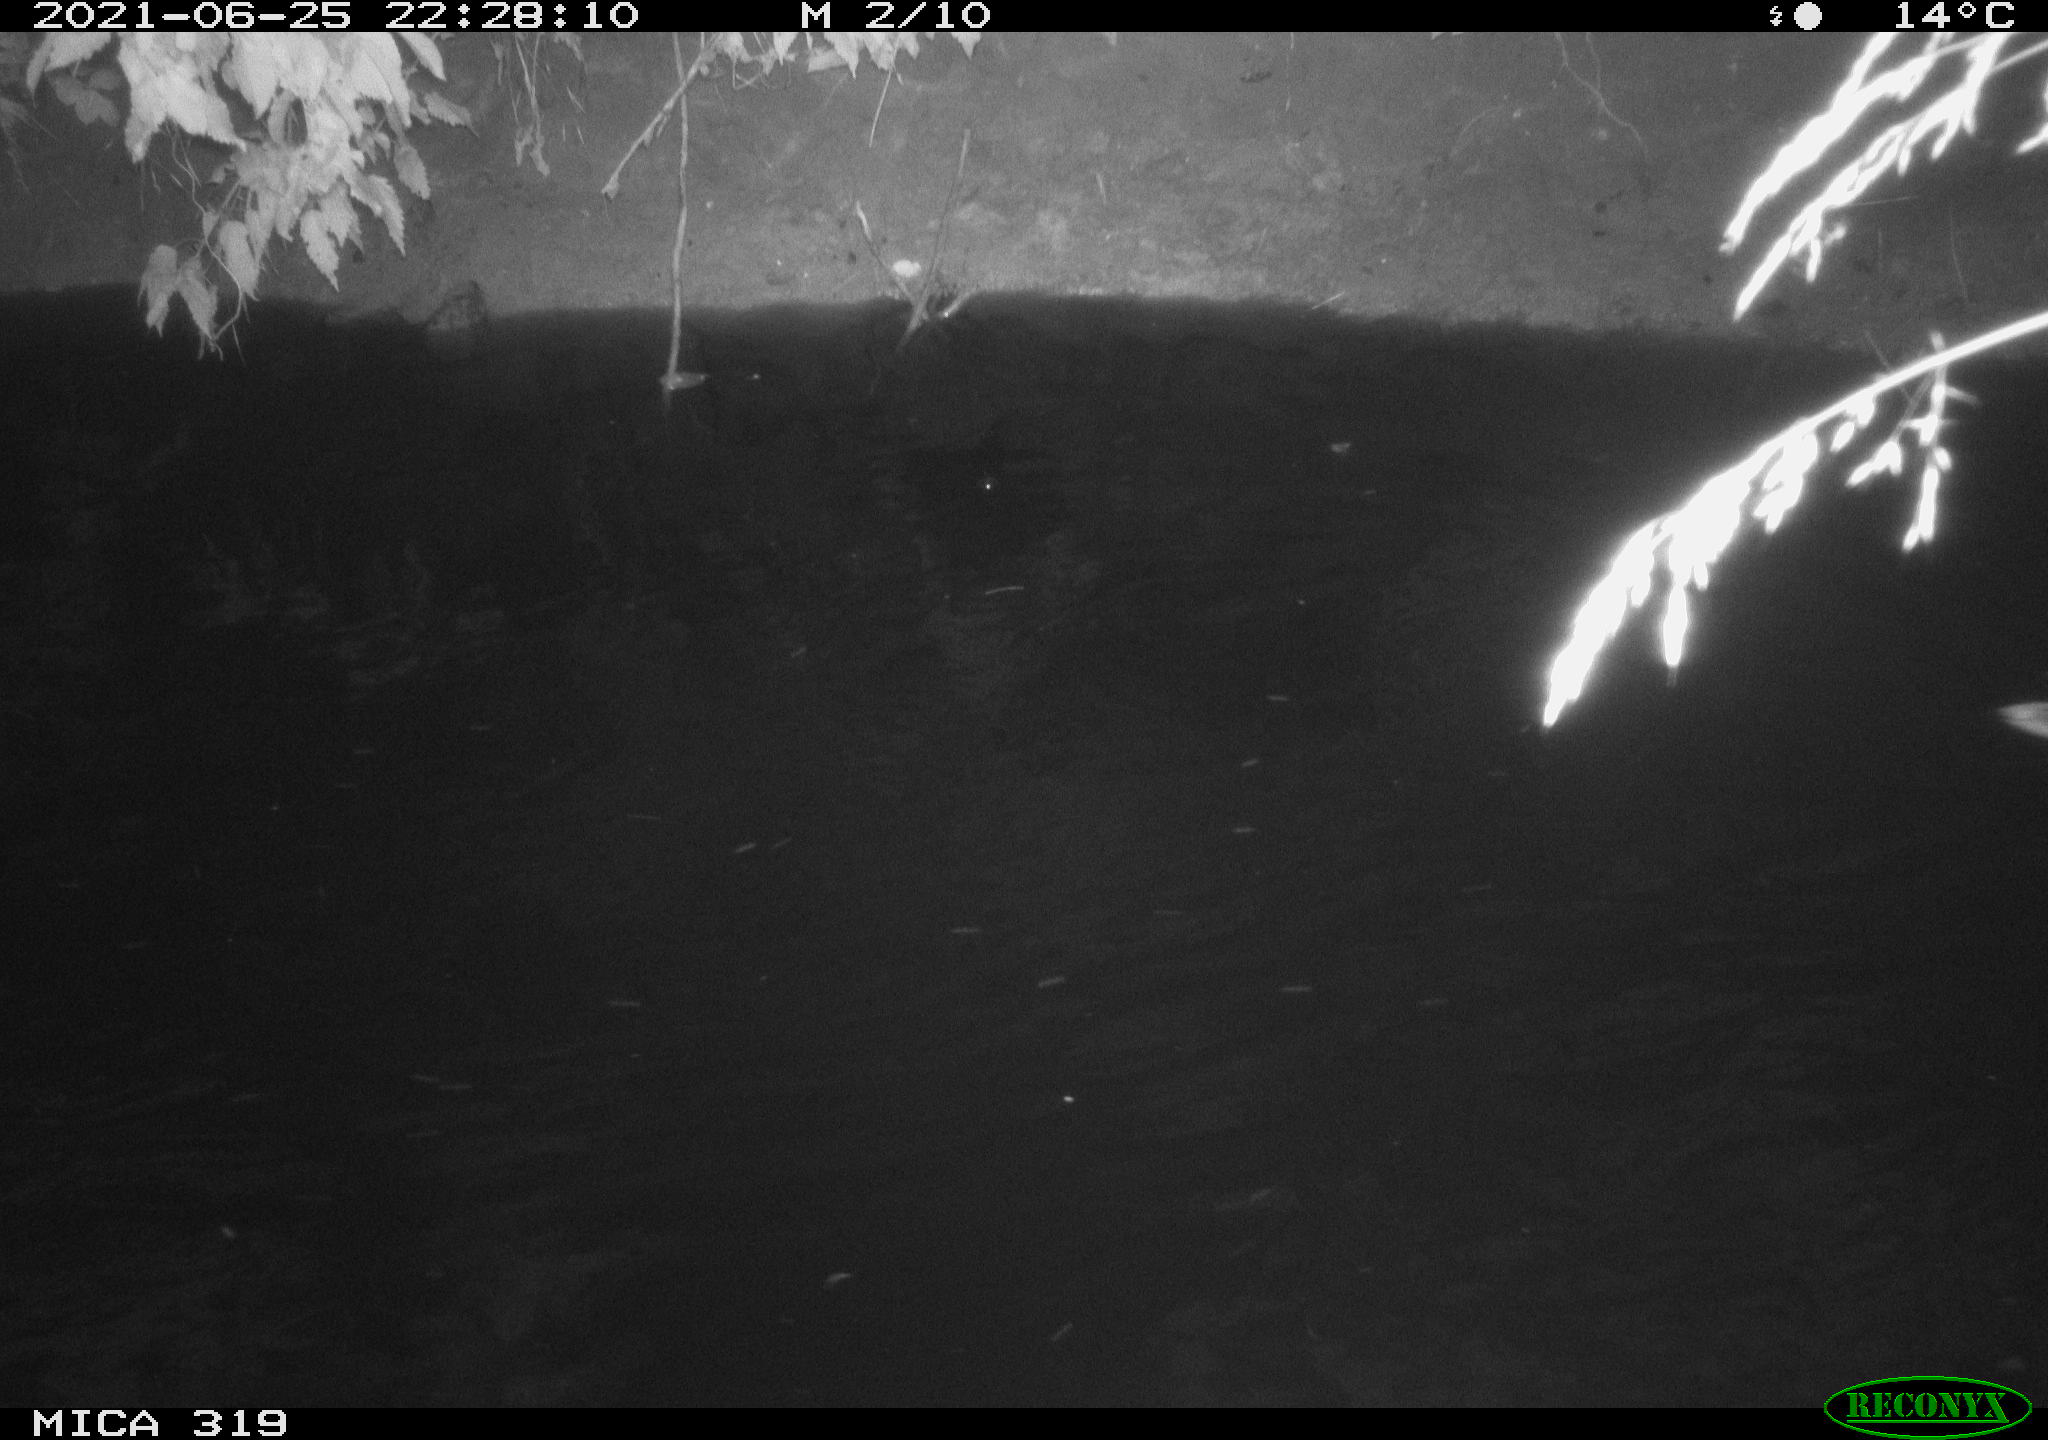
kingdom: Animalia
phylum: Chordata
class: Aves
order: Anseriformes
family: Anatidae
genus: Anas
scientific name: Anas platyrhynchos
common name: Mallard
